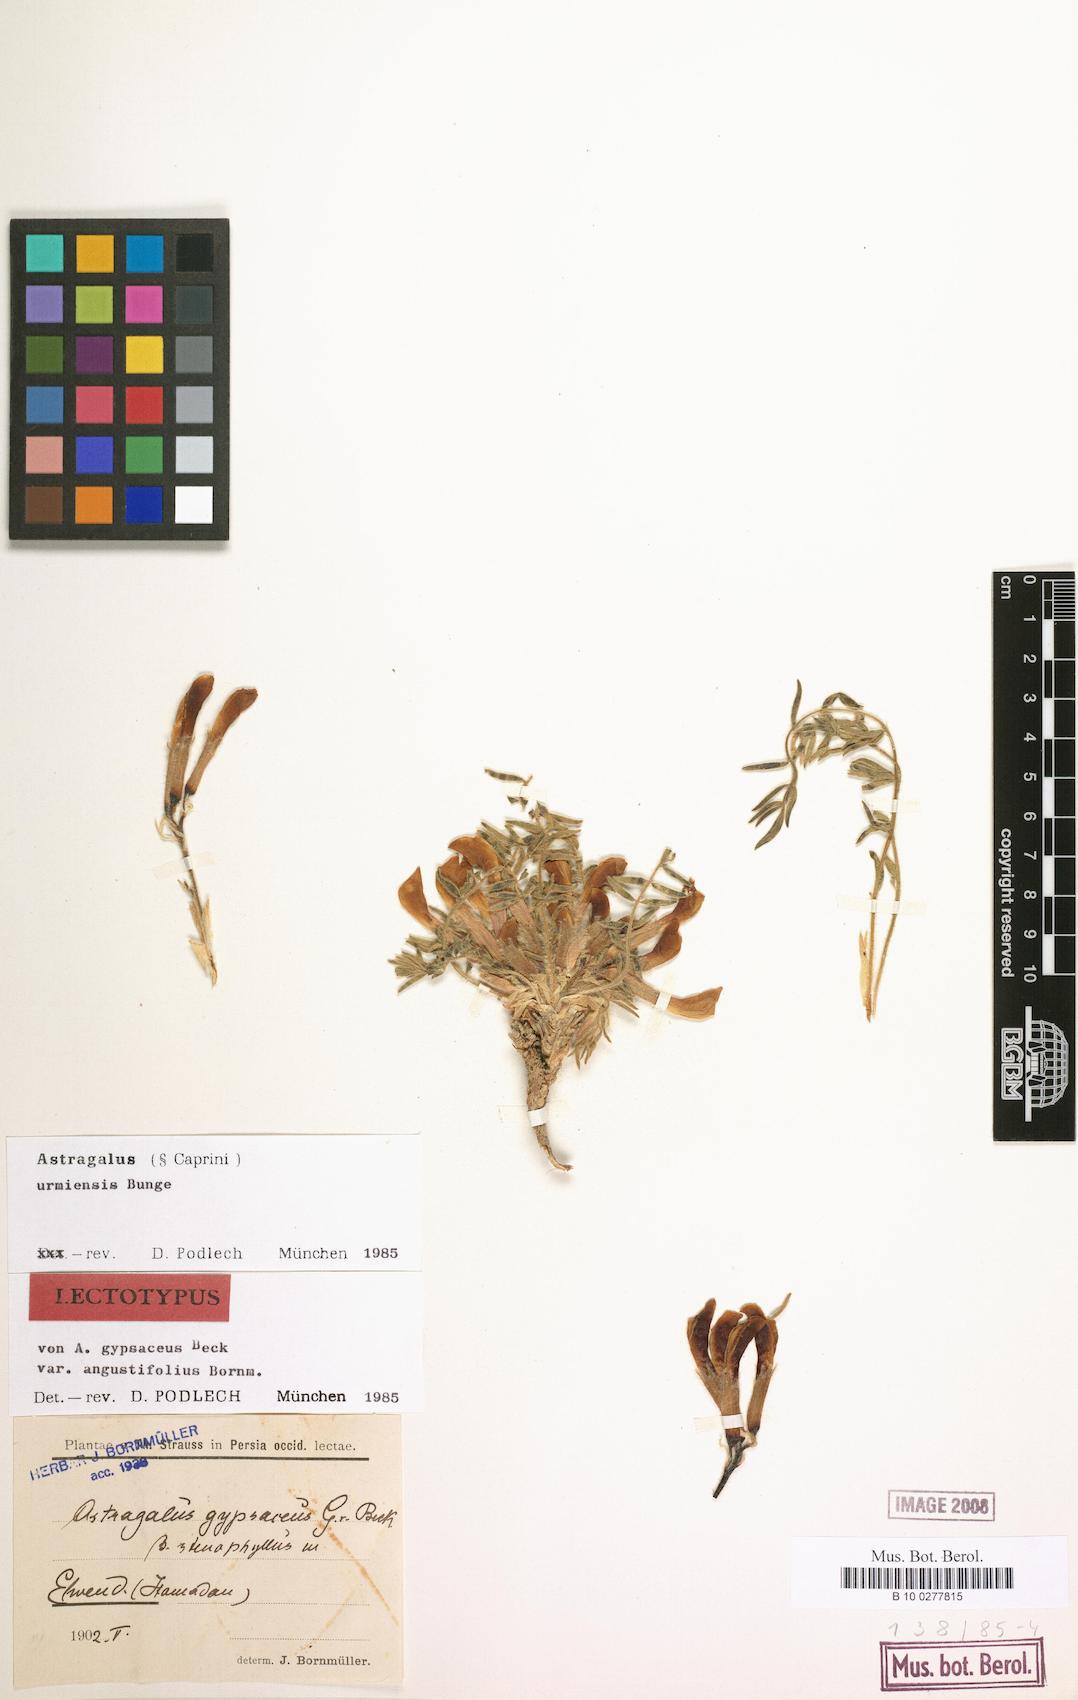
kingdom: Plantae
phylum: Tracheophyta
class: Magnoliopsida
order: Fabales
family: Fabaceae
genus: Astragalus
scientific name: Astragalus urmiensis
